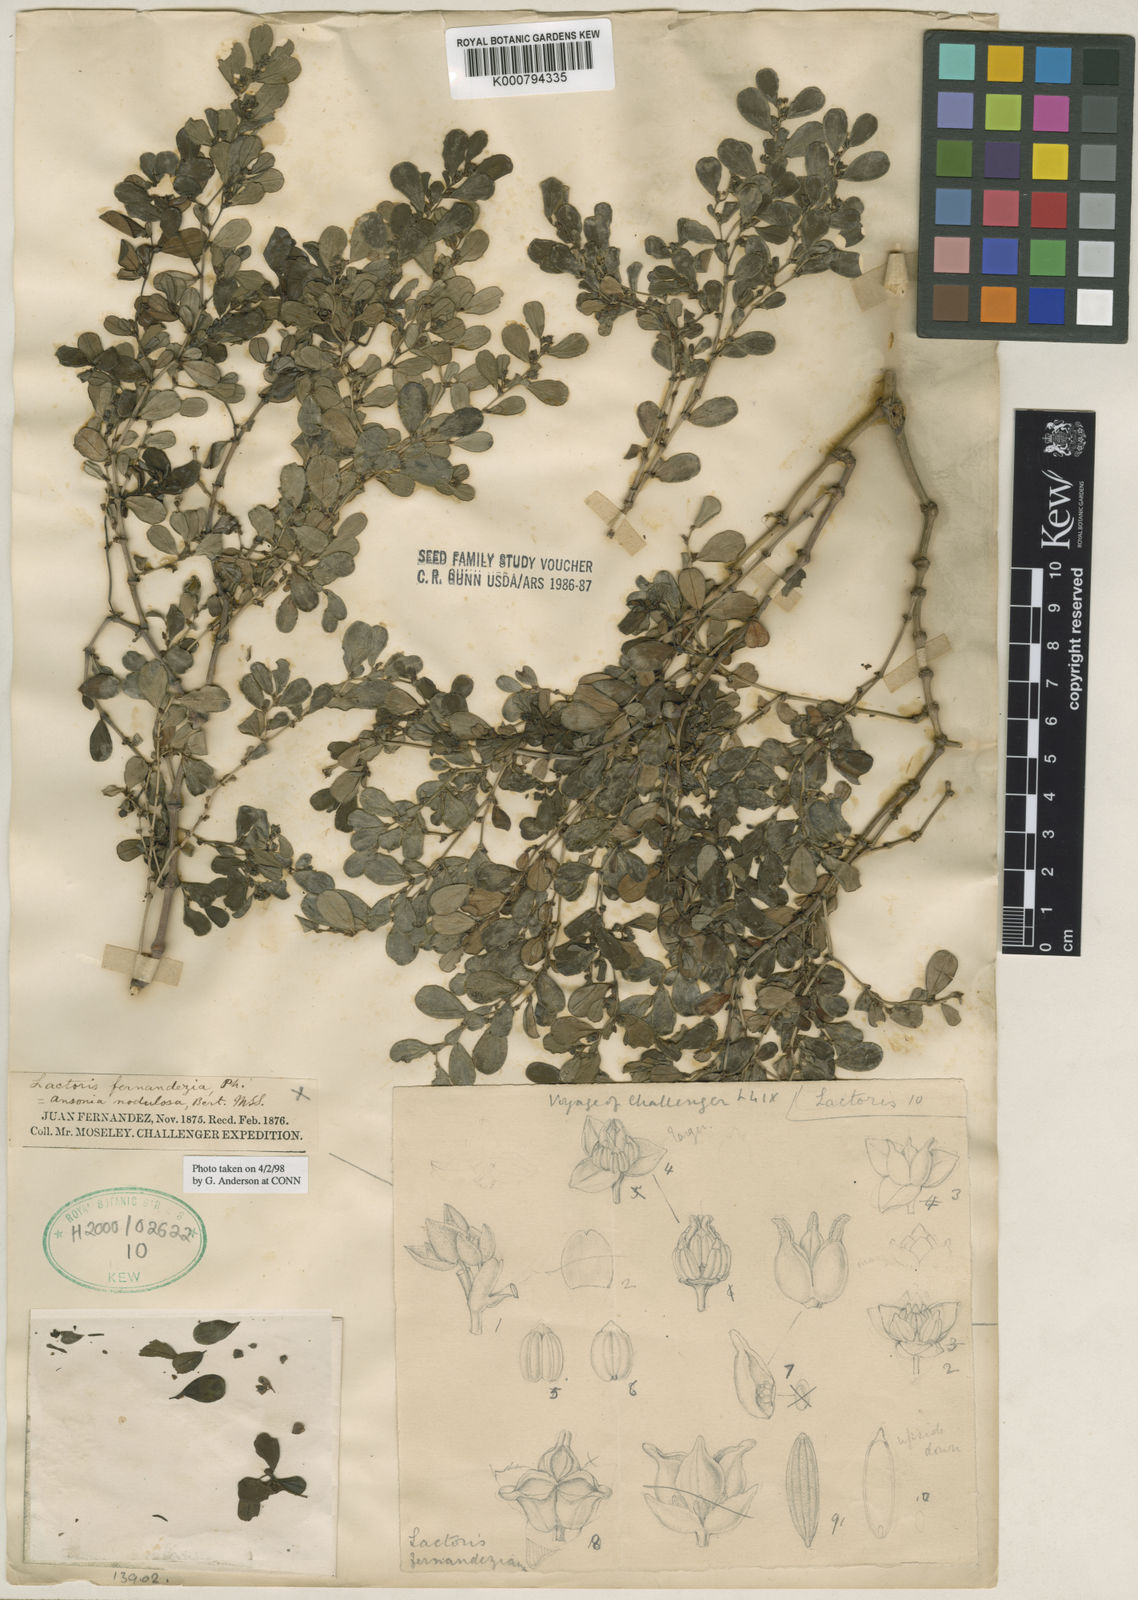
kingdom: Plantae
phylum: Tracheophyta
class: Magnoliopsida
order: Piperales
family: Aristolochiaceae
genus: Lactoris
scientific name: Lactoris fernandeziana
